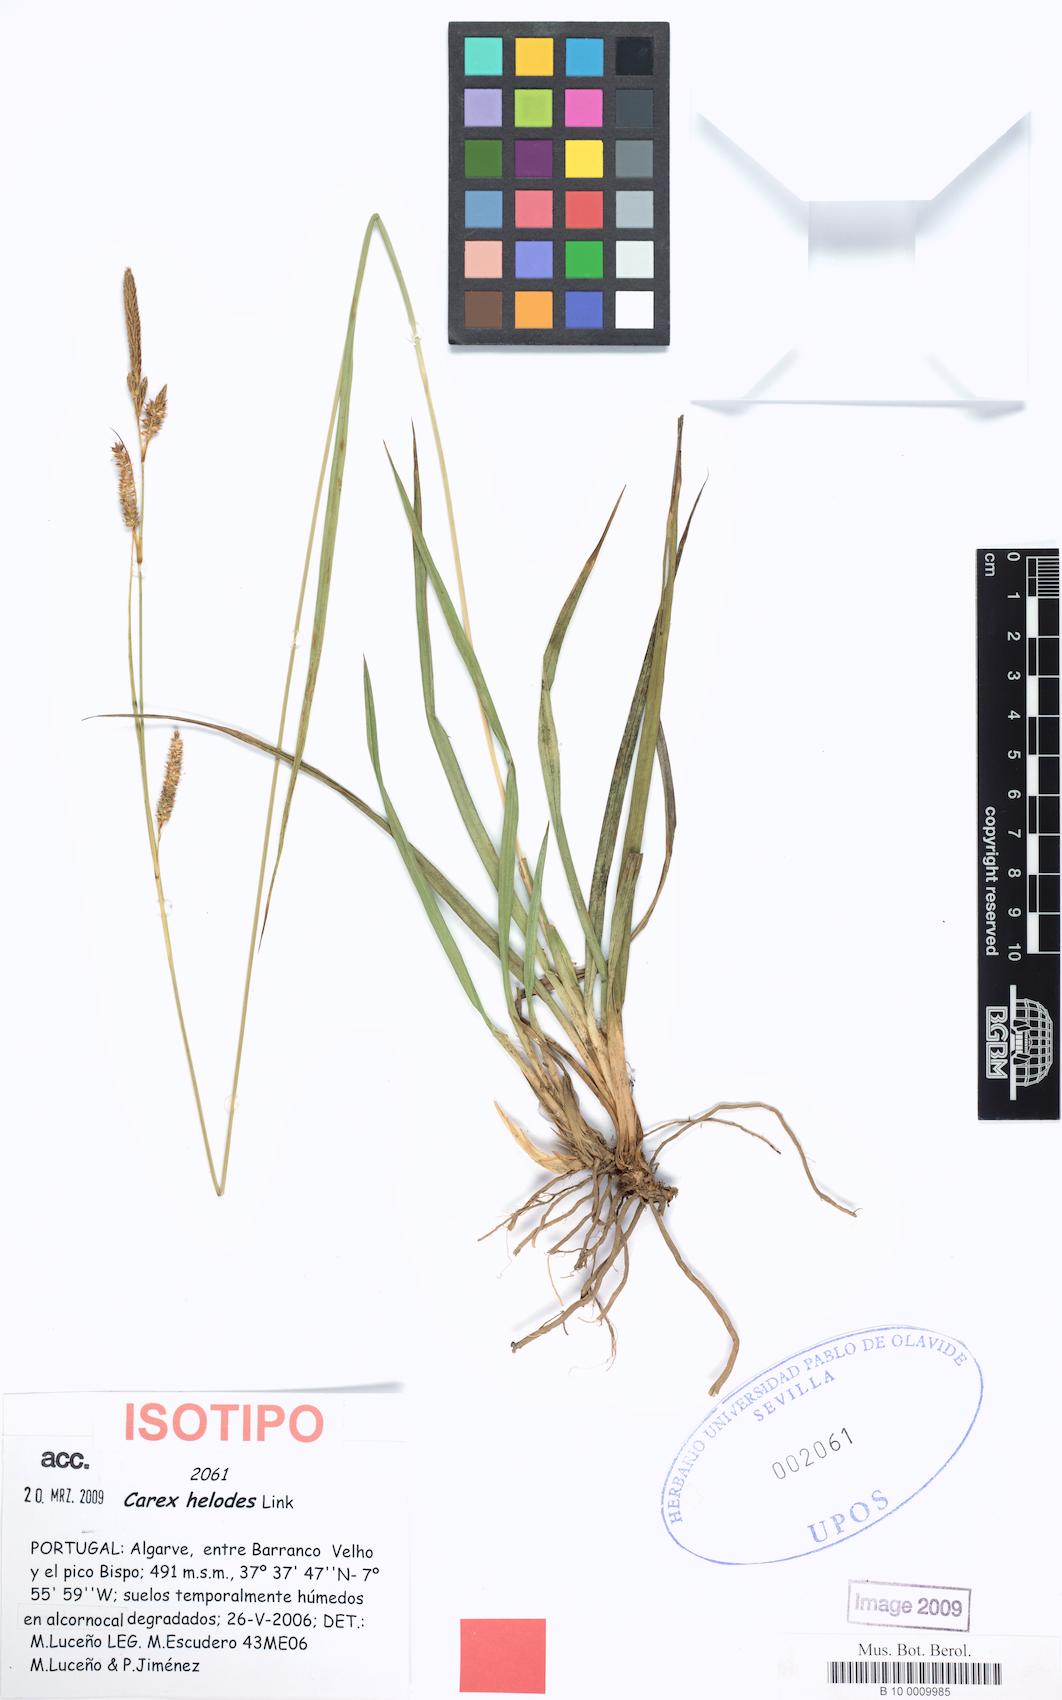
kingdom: Plantae
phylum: Tracheophyta
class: Liliopsida
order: Poales
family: Cyperaceae
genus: Carex
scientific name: Carex helodes
